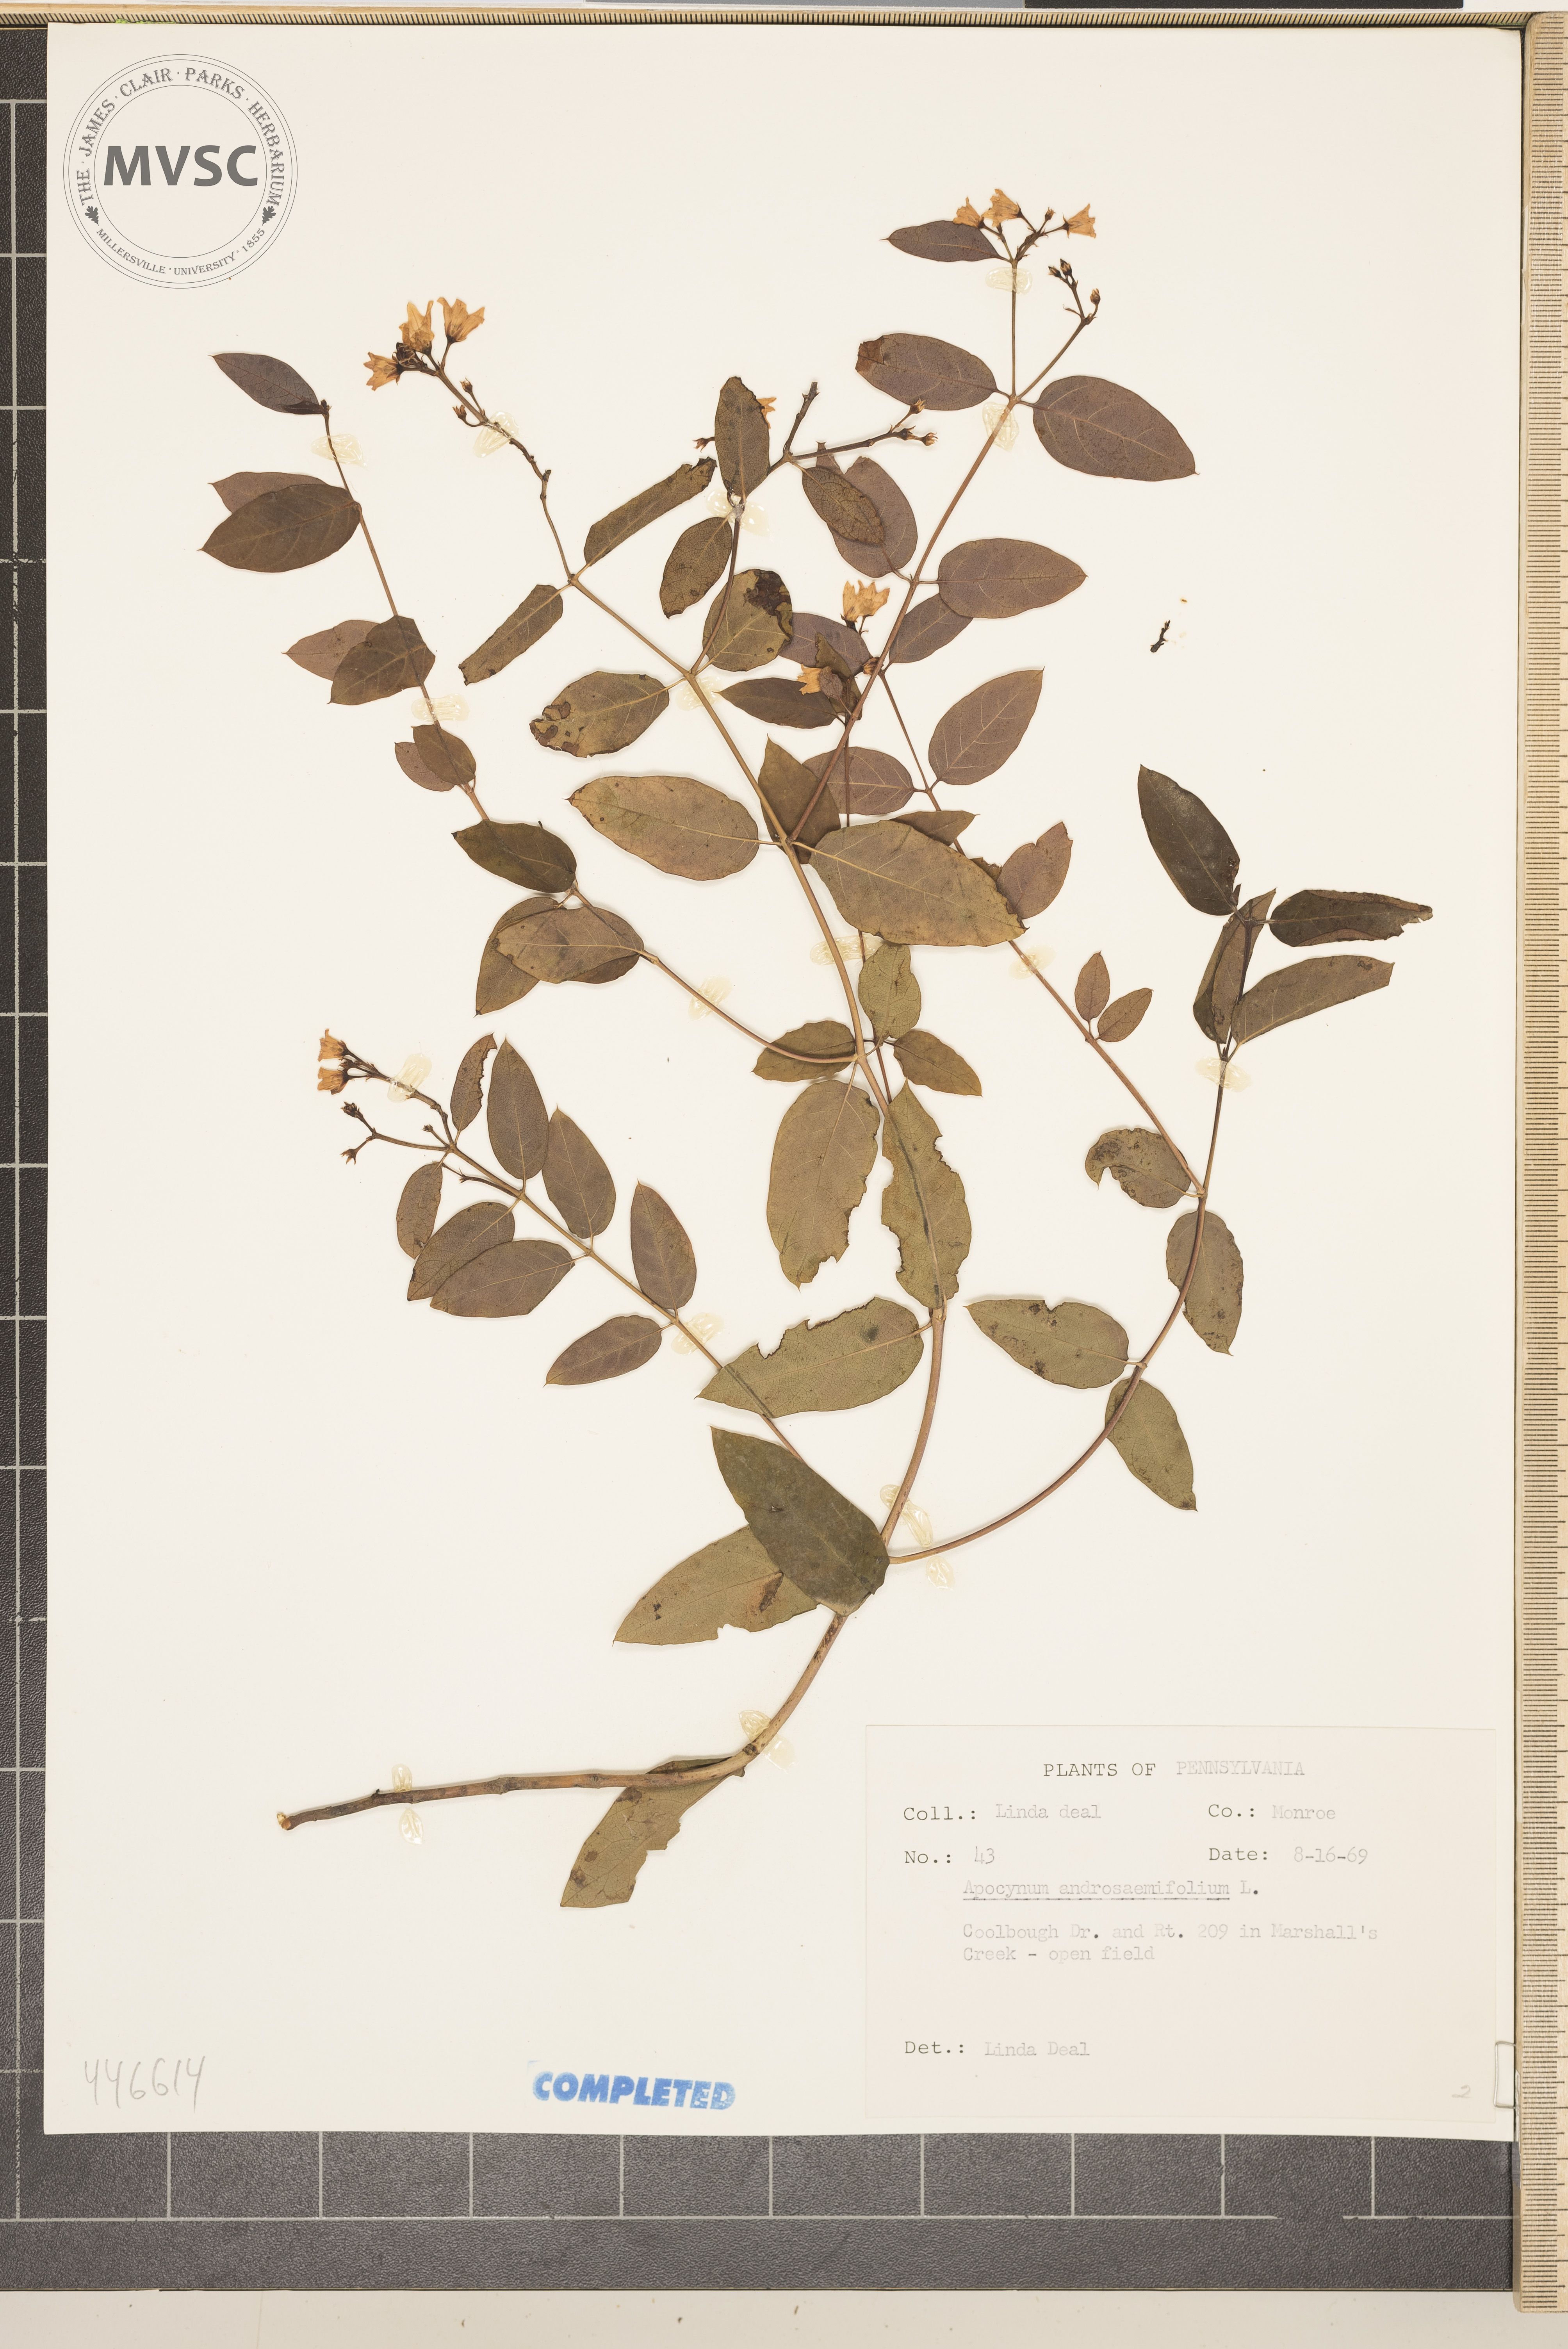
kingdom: Plantae
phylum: Tracheophyta
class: Magnoliopsida
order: Gentianales
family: Apocynaceae
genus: Apocynum
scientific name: Apocynum androsaemifolium
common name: Spreading dogbane
